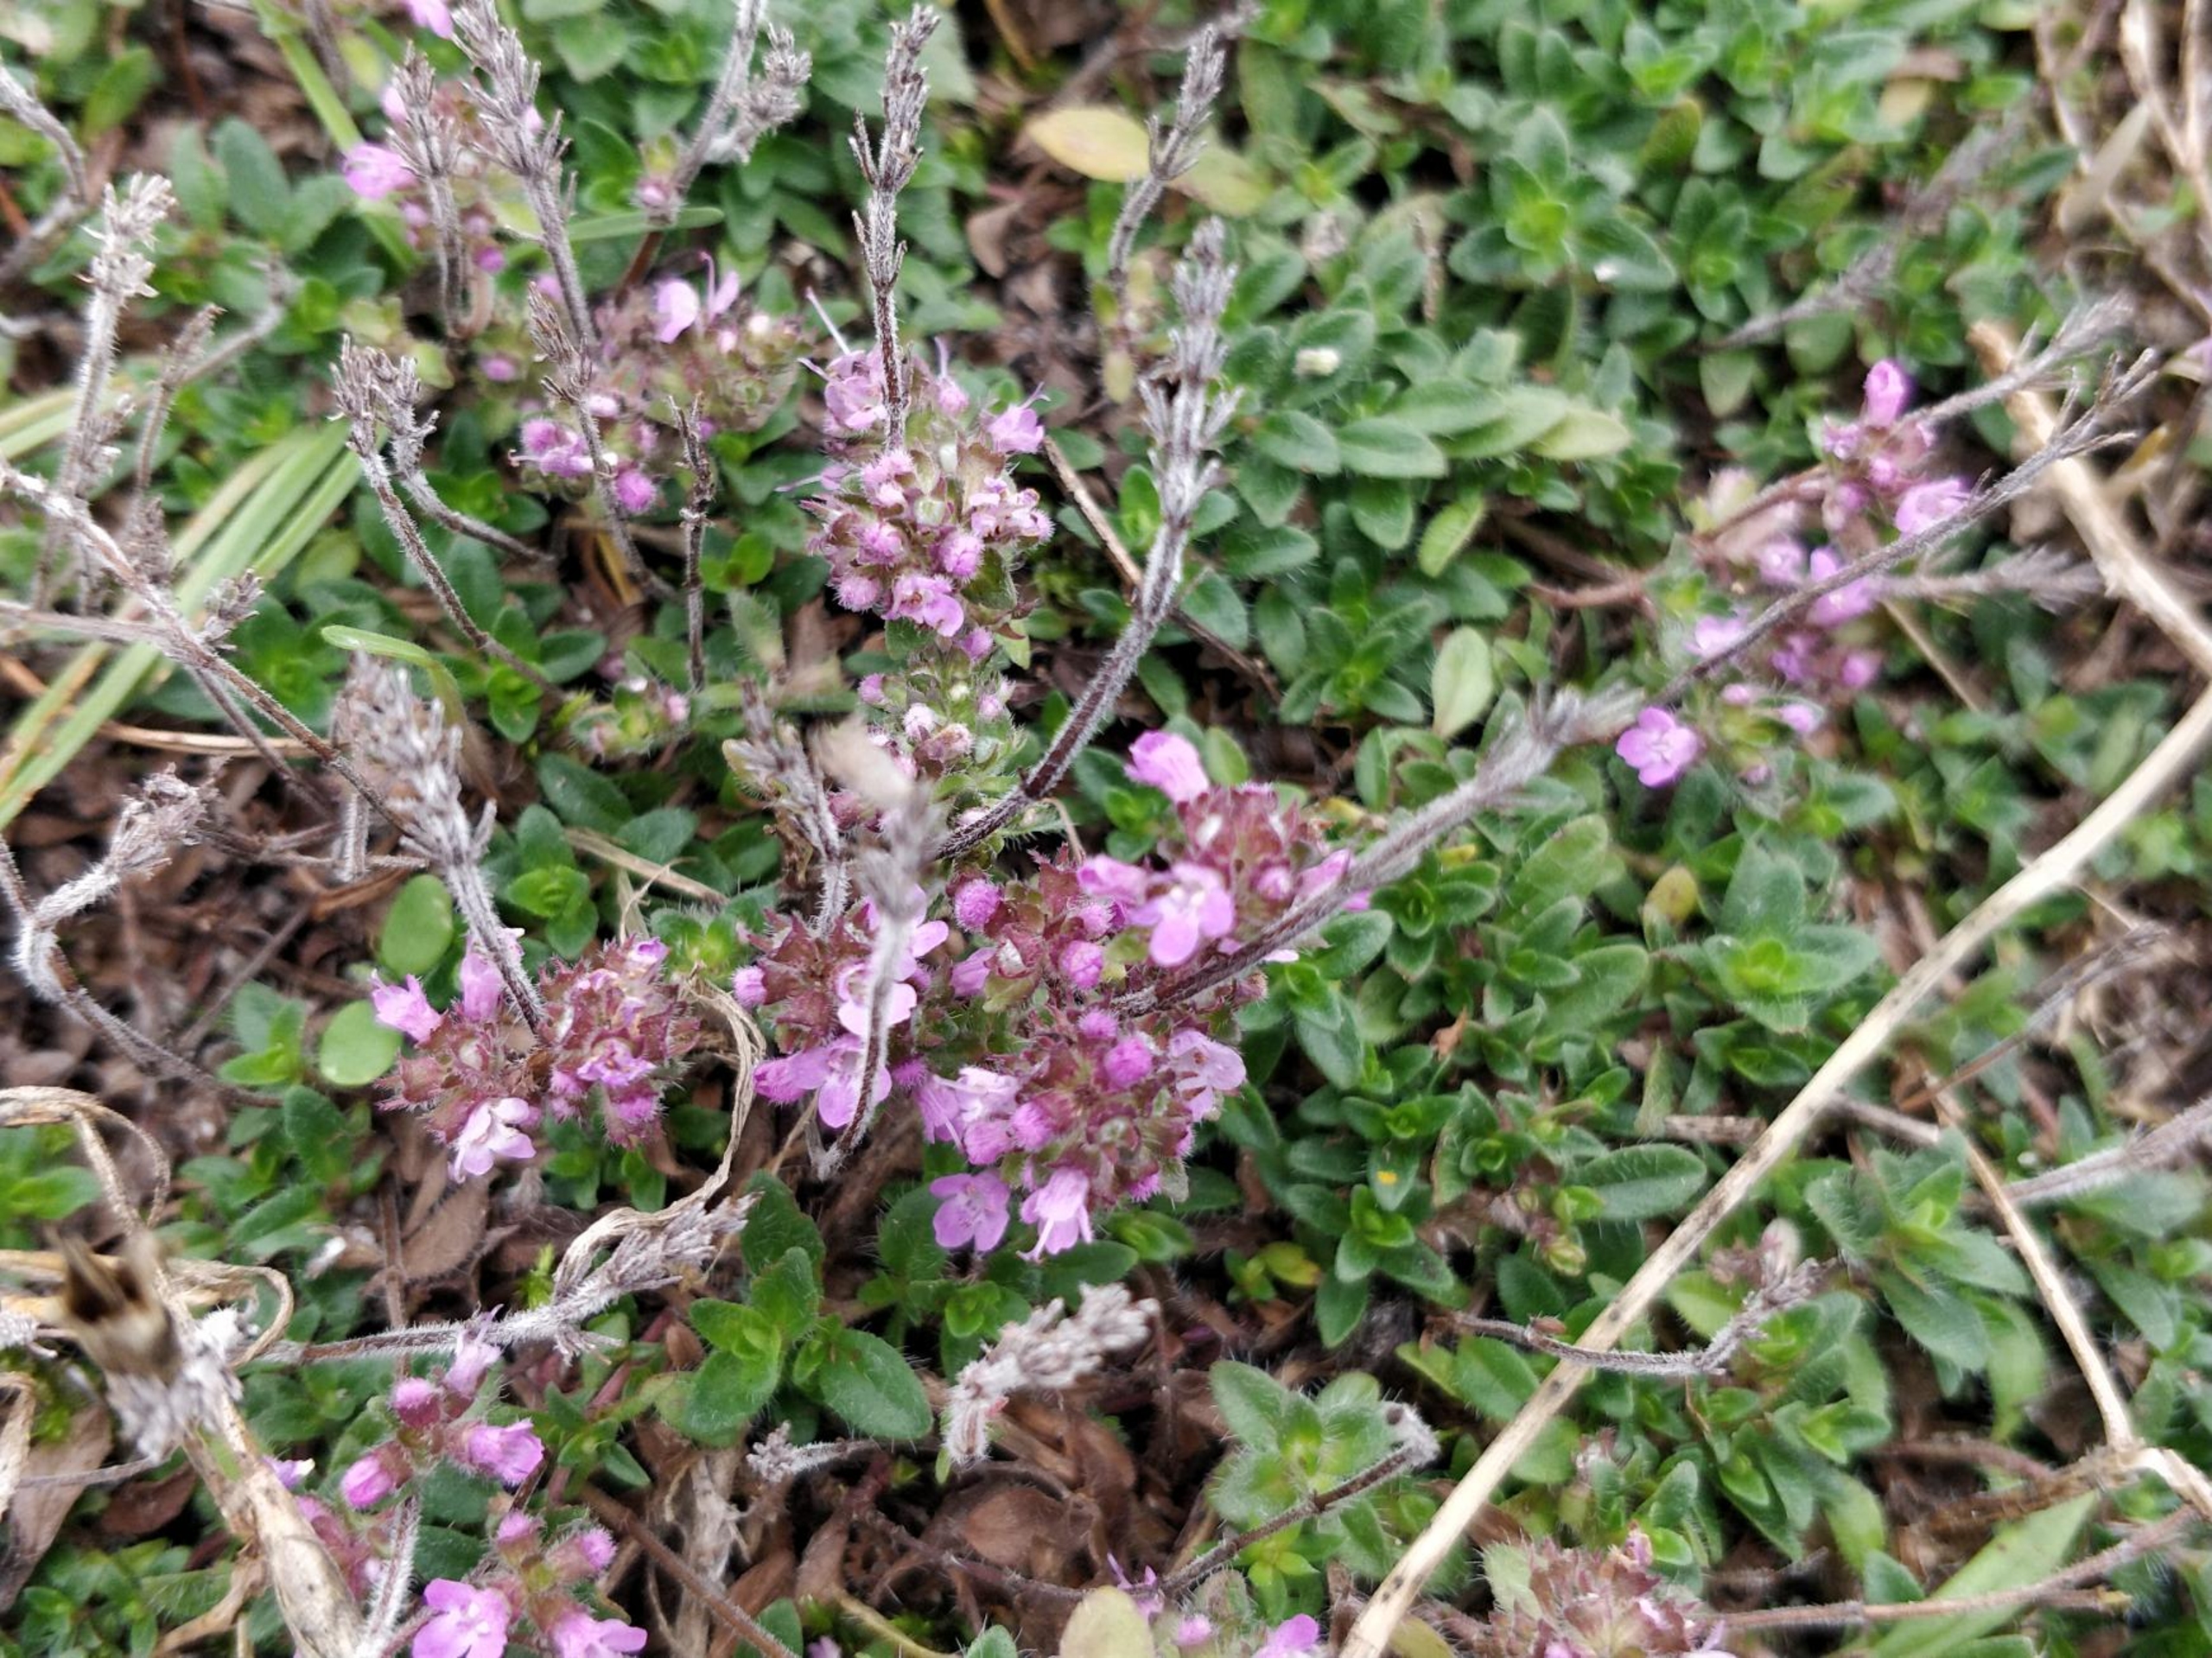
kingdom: Plantae
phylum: Tracheophyta
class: Magnoliopsida
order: Lamiales
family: Lamiaceae
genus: Thymus
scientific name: Thymus serpyllum
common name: Smalbladet timian
